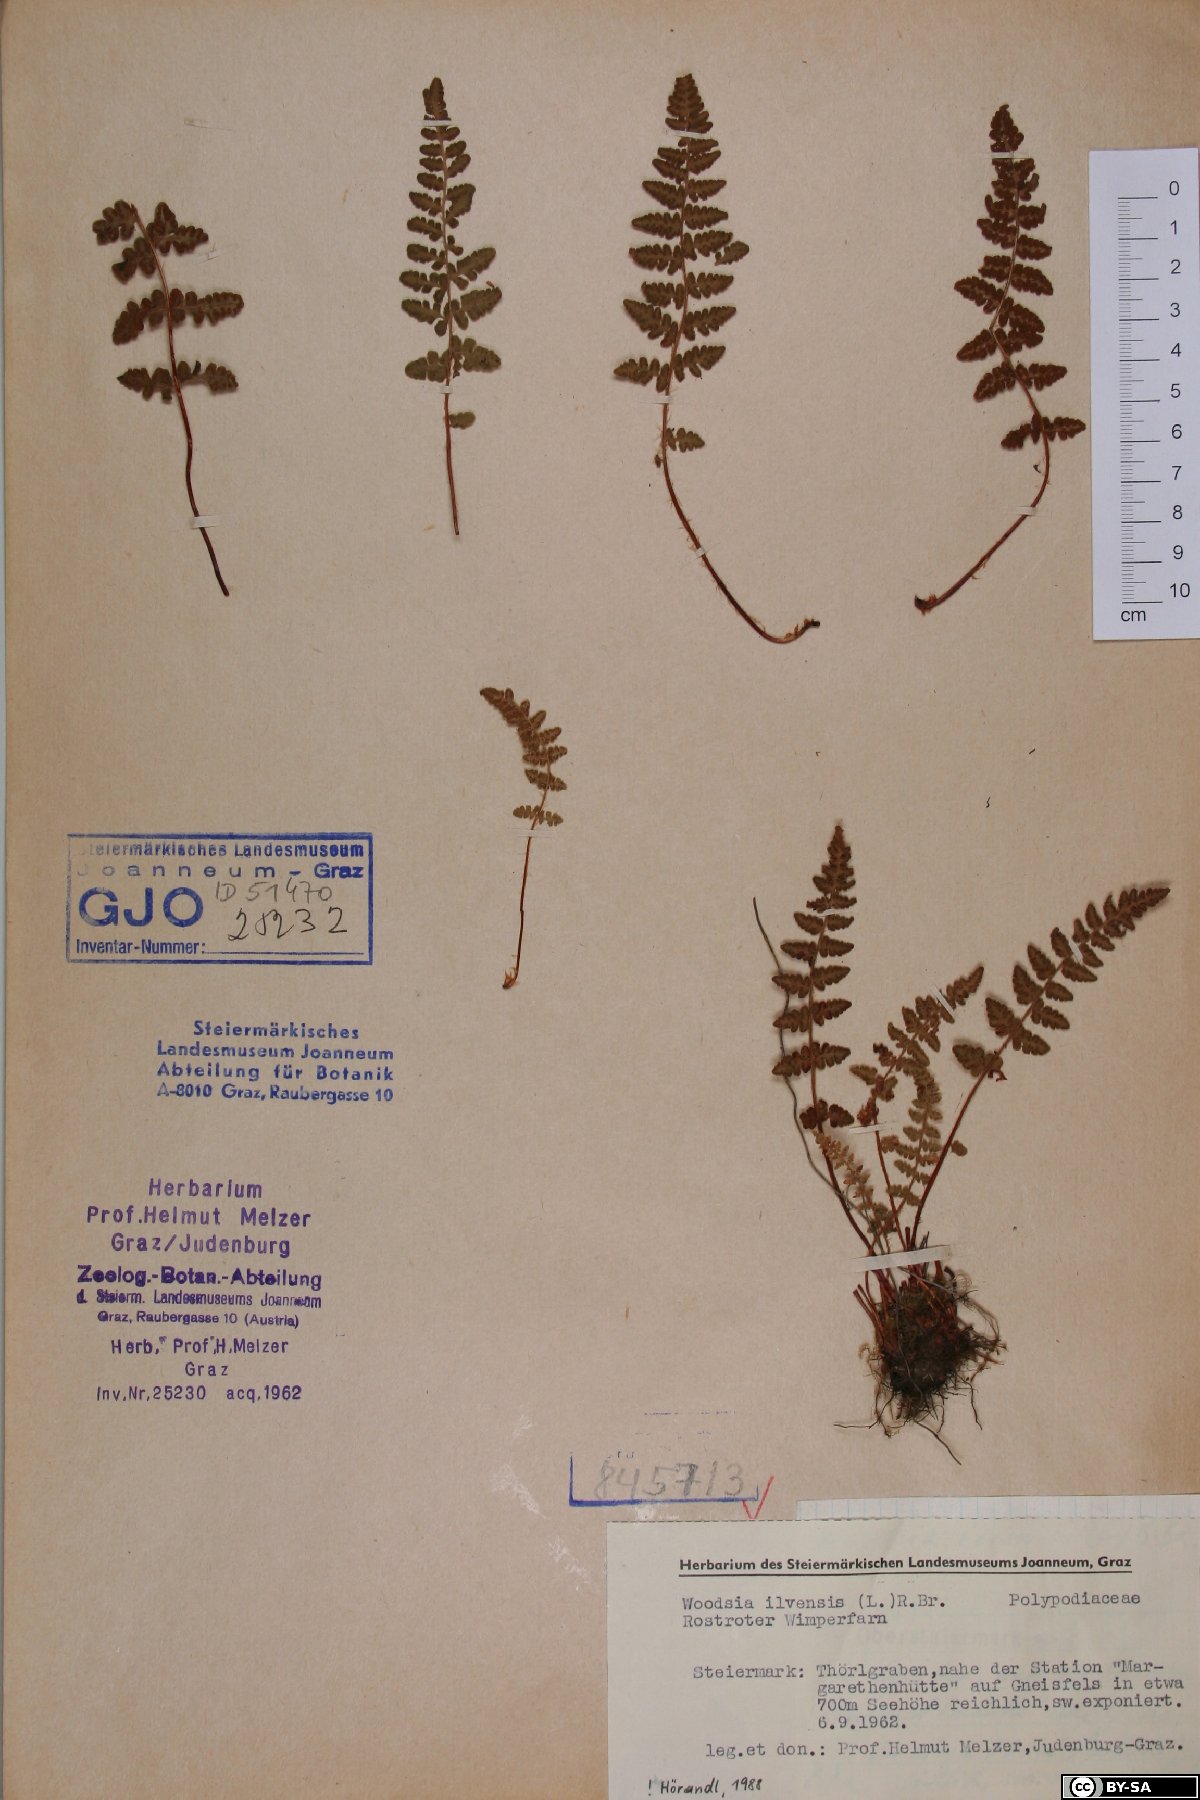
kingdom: Plantae
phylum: Tracheophyta
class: Polypodiopsida
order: Polypodiales
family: Woodsiaceae
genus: Woodsia
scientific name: Woodsia ilvensis
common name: Fragrant woodsia
